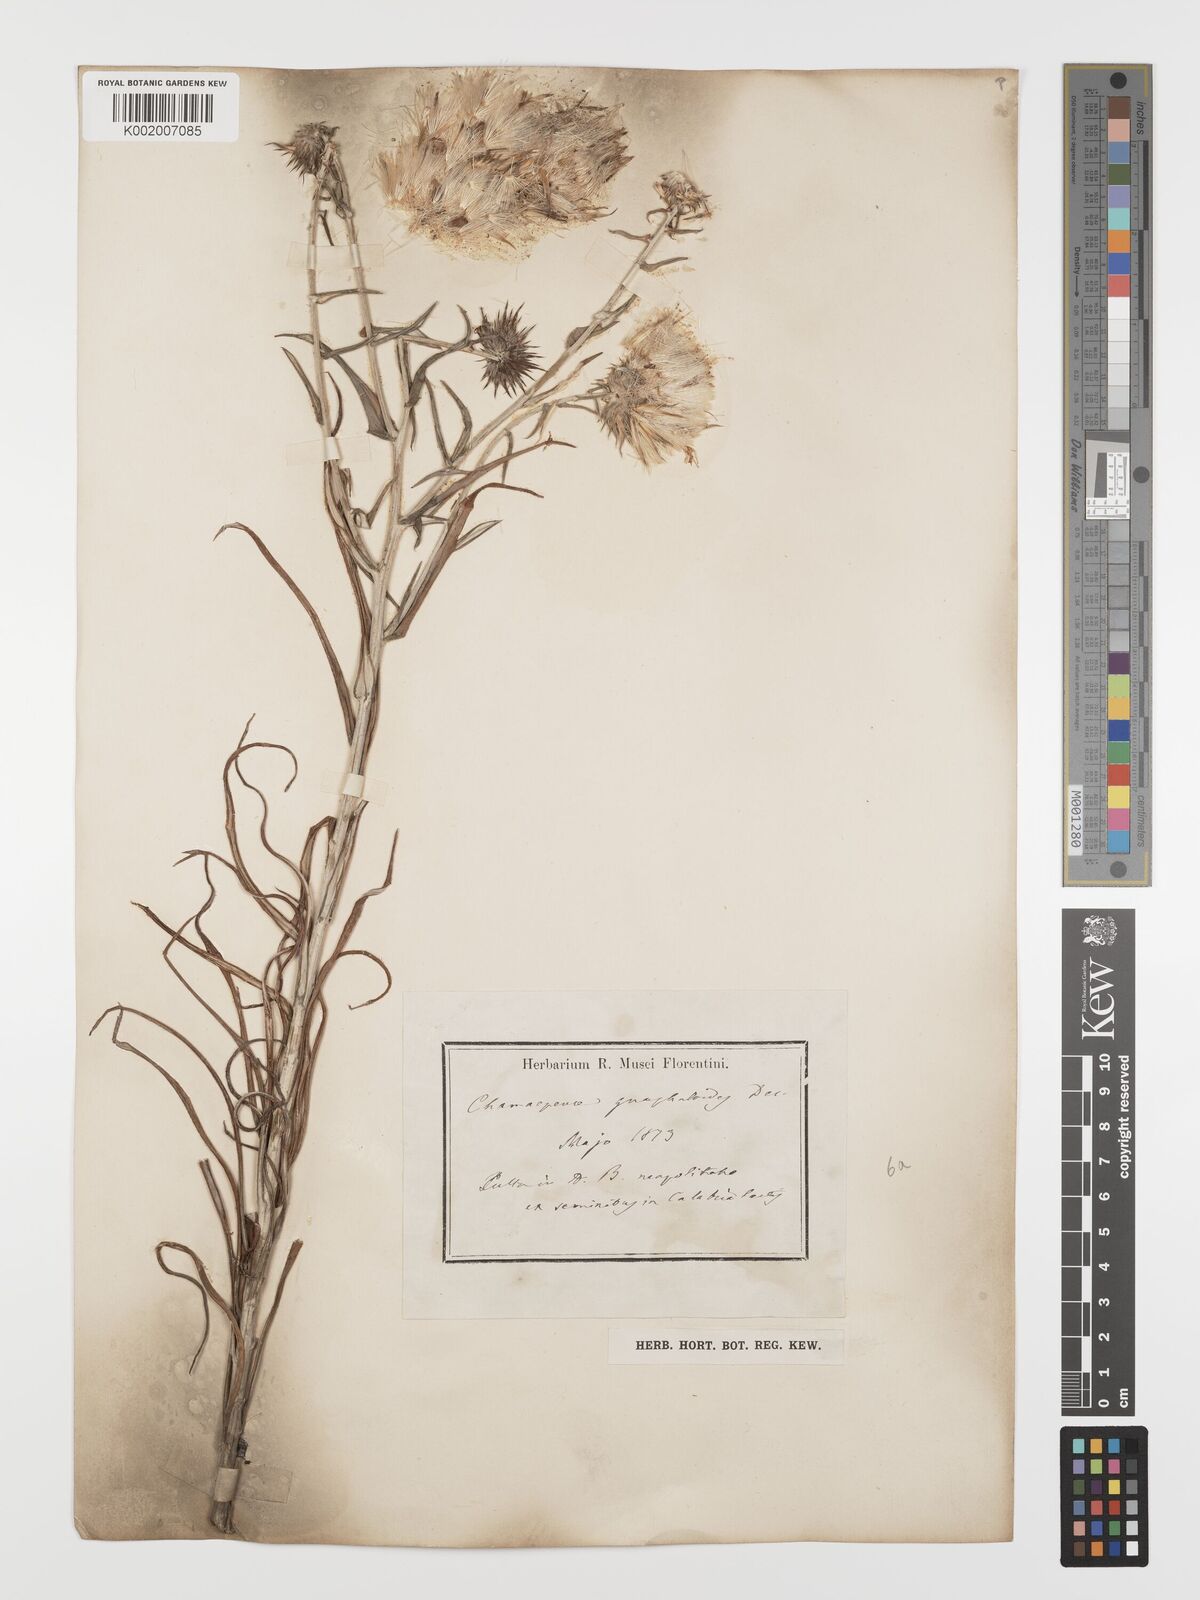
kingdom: Plantae
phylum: Tracheophyta
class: Magnoliopsida
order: Asterales
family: Asteraceae
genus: Ptilostemon
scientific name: Ptilostemon gnaphaloides
